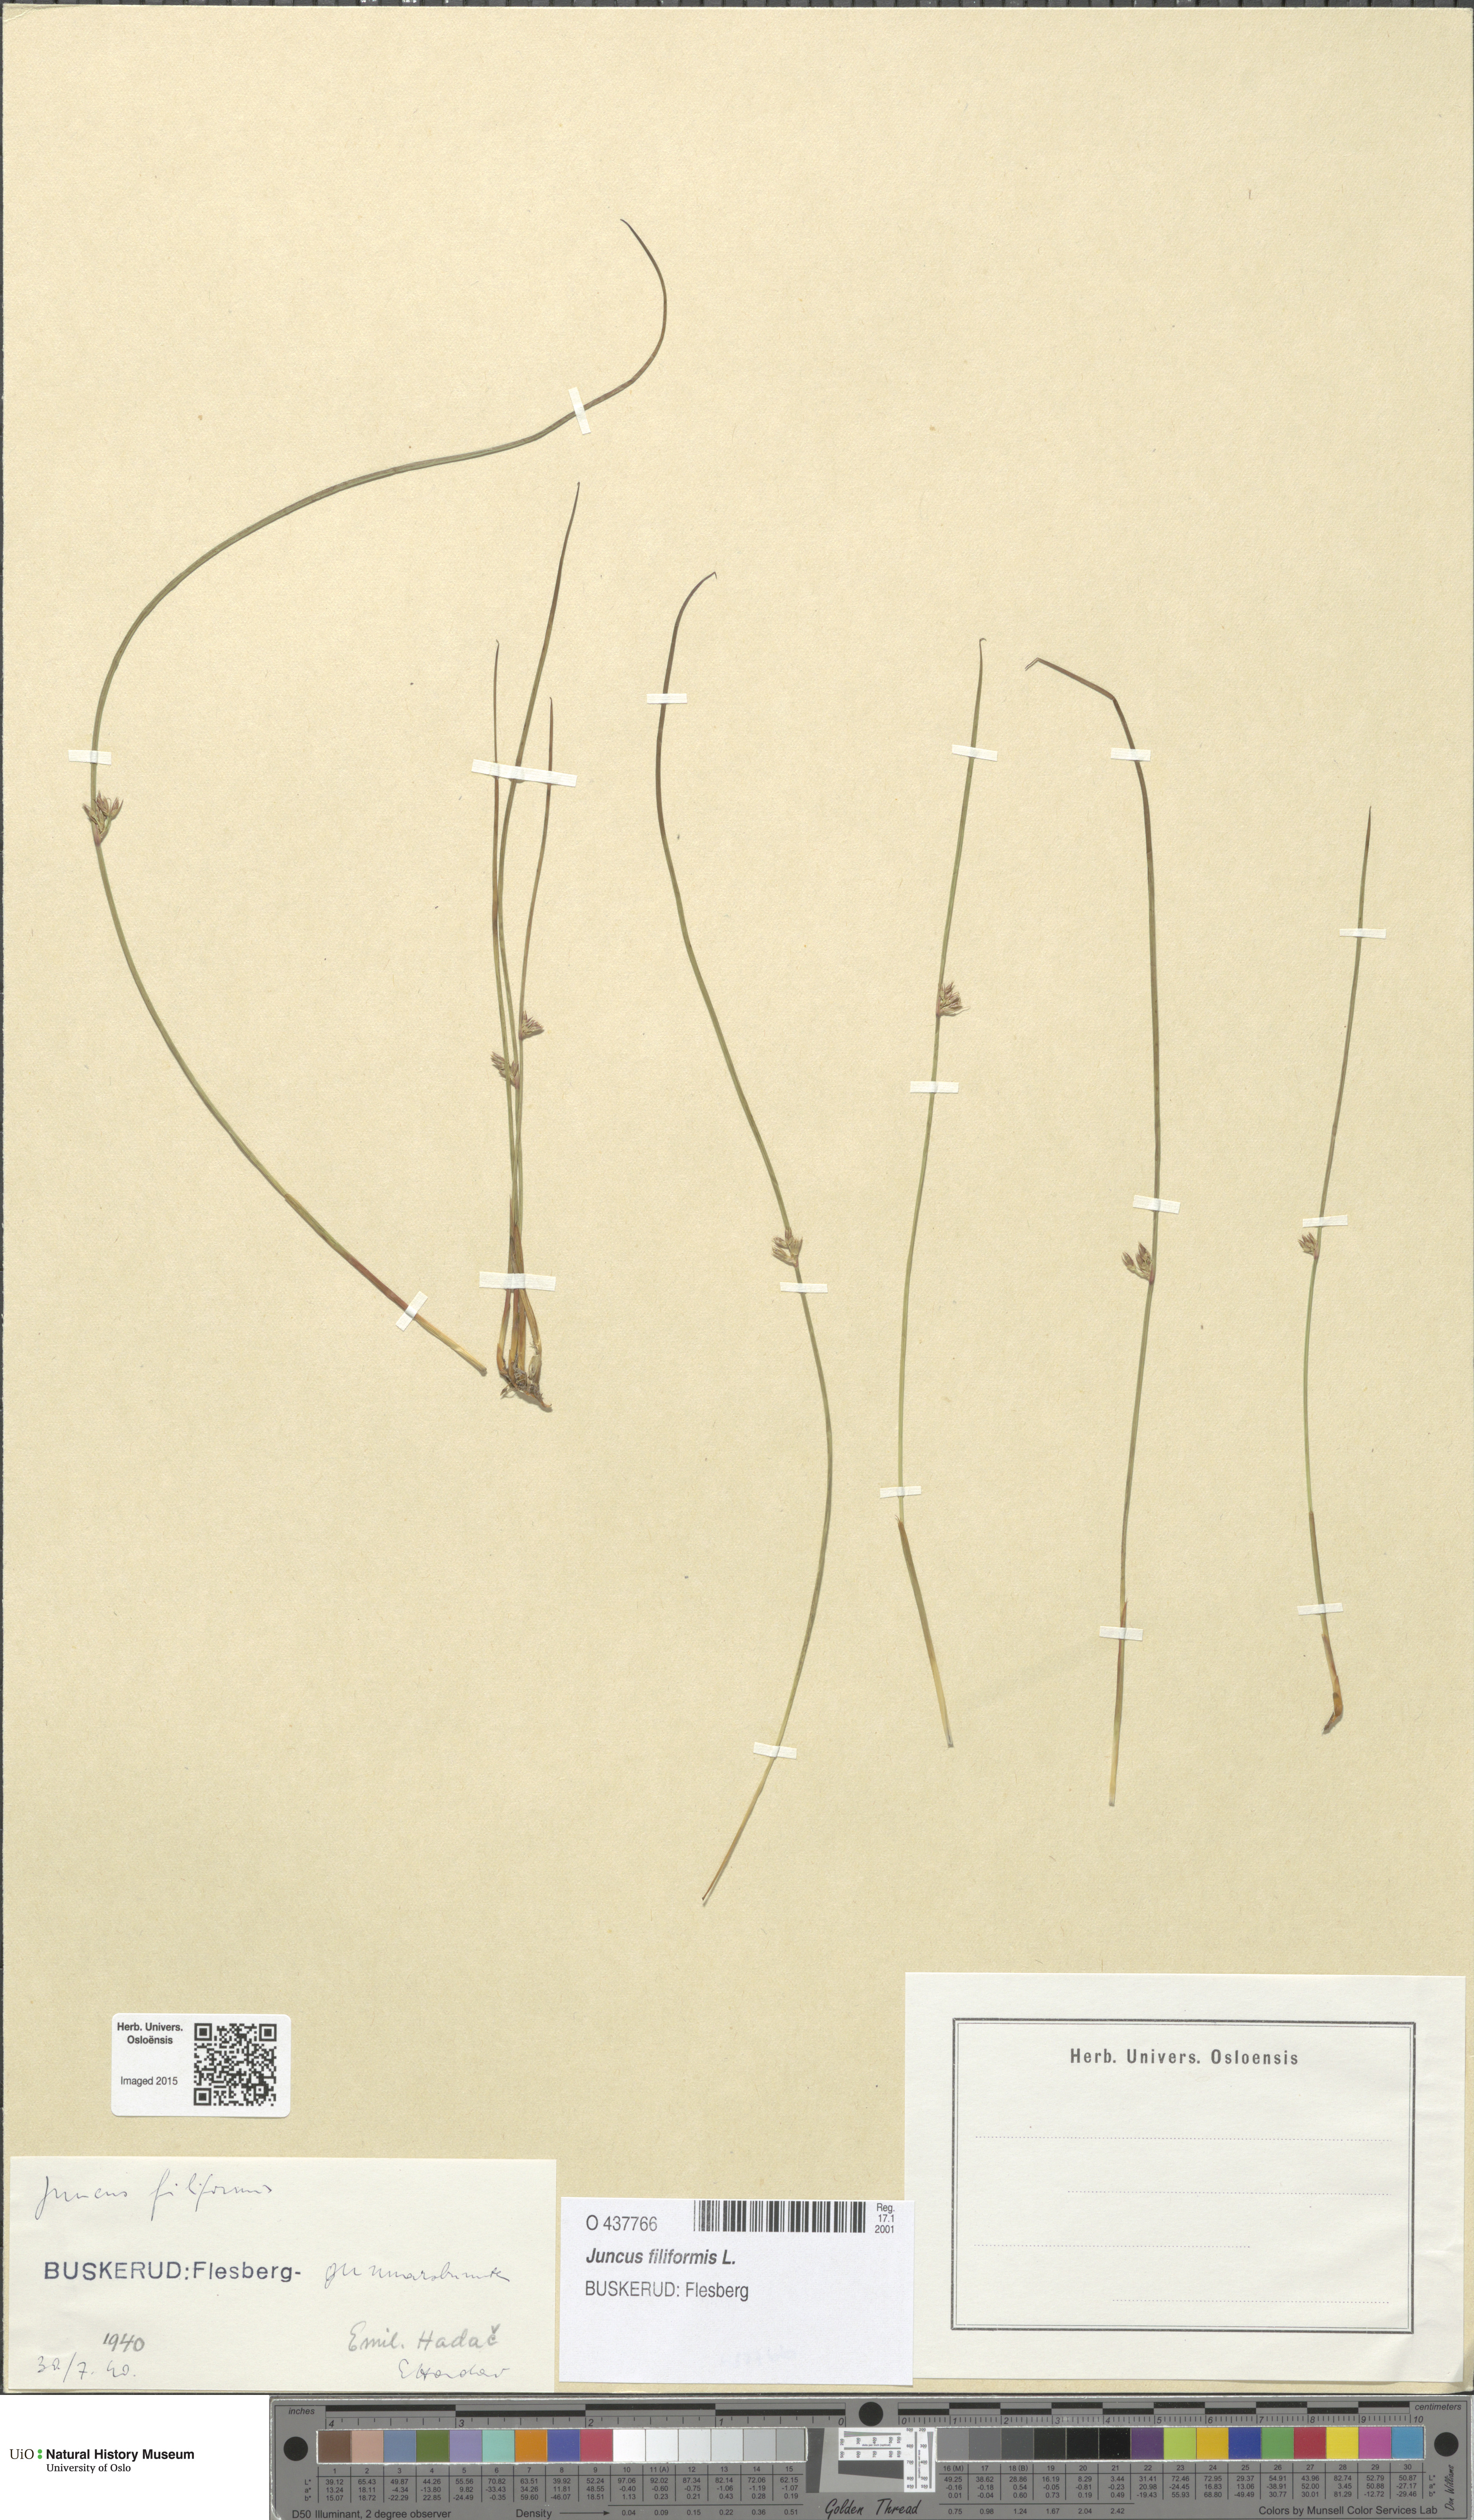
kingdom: Plantae
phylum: Tracheophyta
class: Liliopsida
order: Poales
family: Juncaceae
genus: Juncus
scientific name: Juncus filiformis
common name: Thread rush
